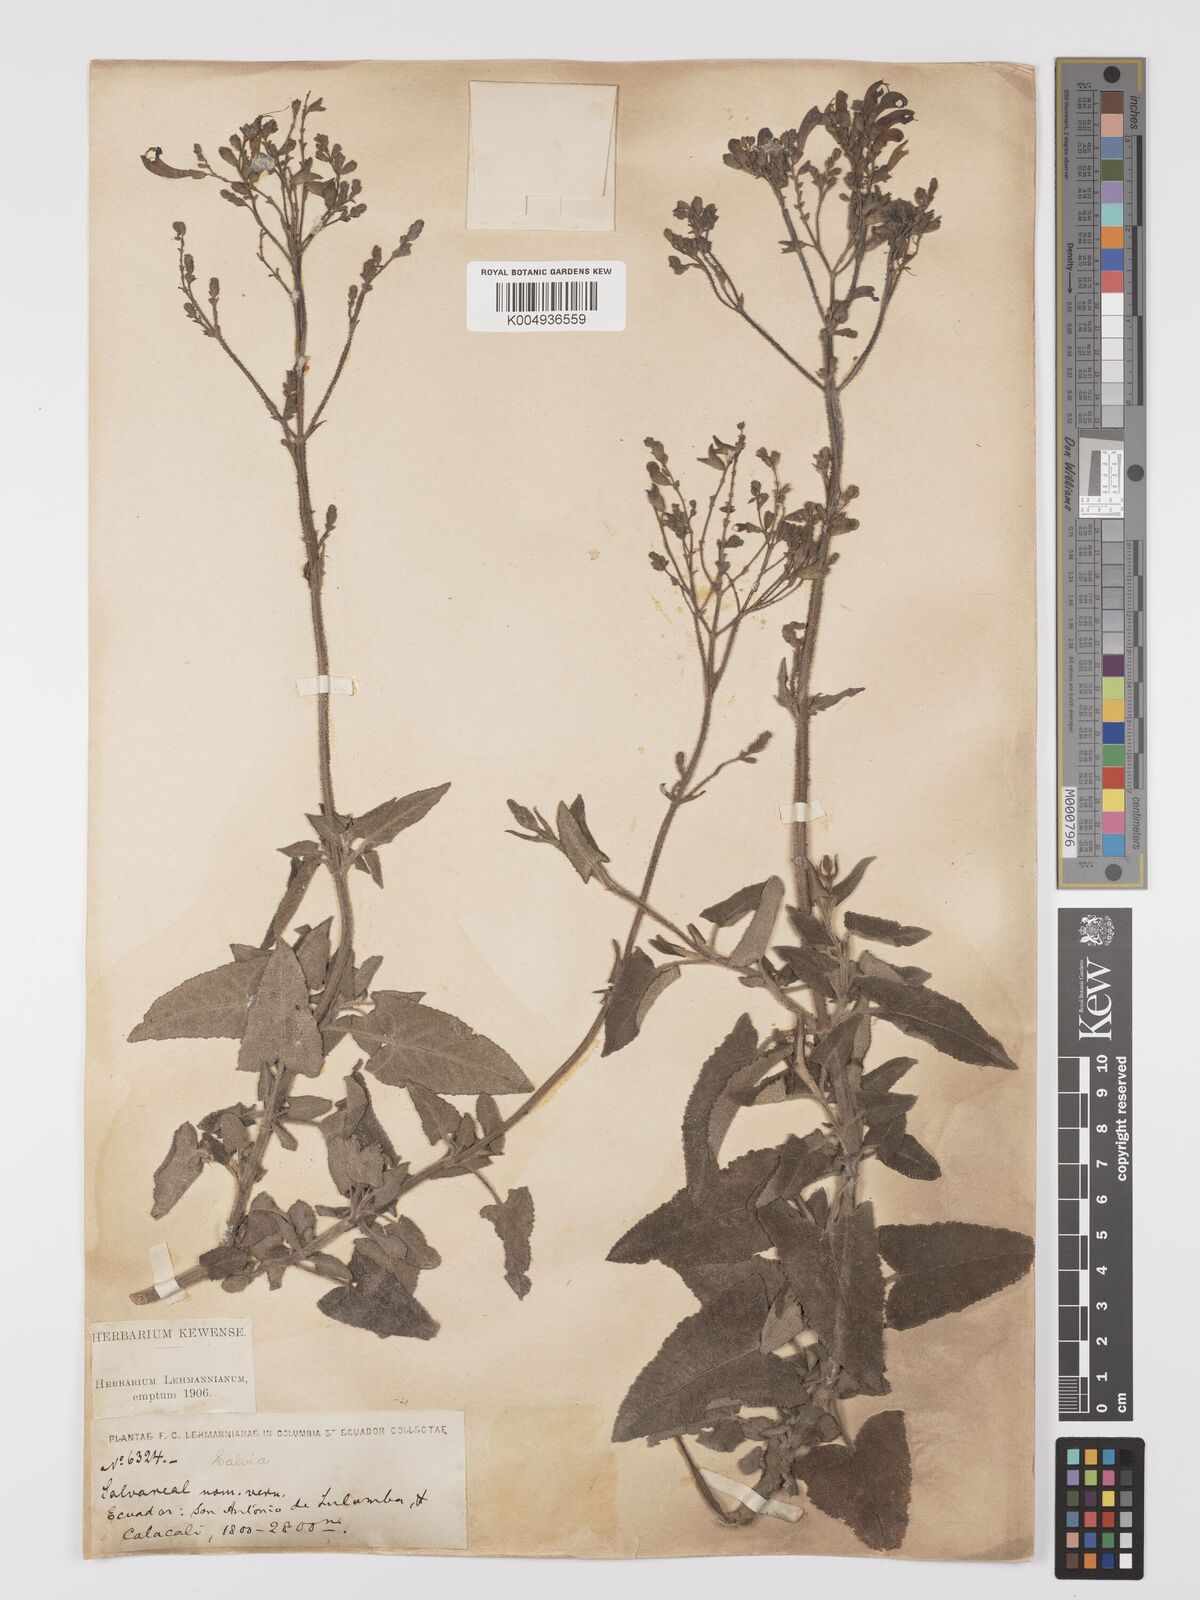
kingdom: Plantae
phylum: Tracheophyta
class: Magnoliopsida
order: Lamiales
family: Lamiaceae
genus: Salvia
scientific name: Salvia sagittata
